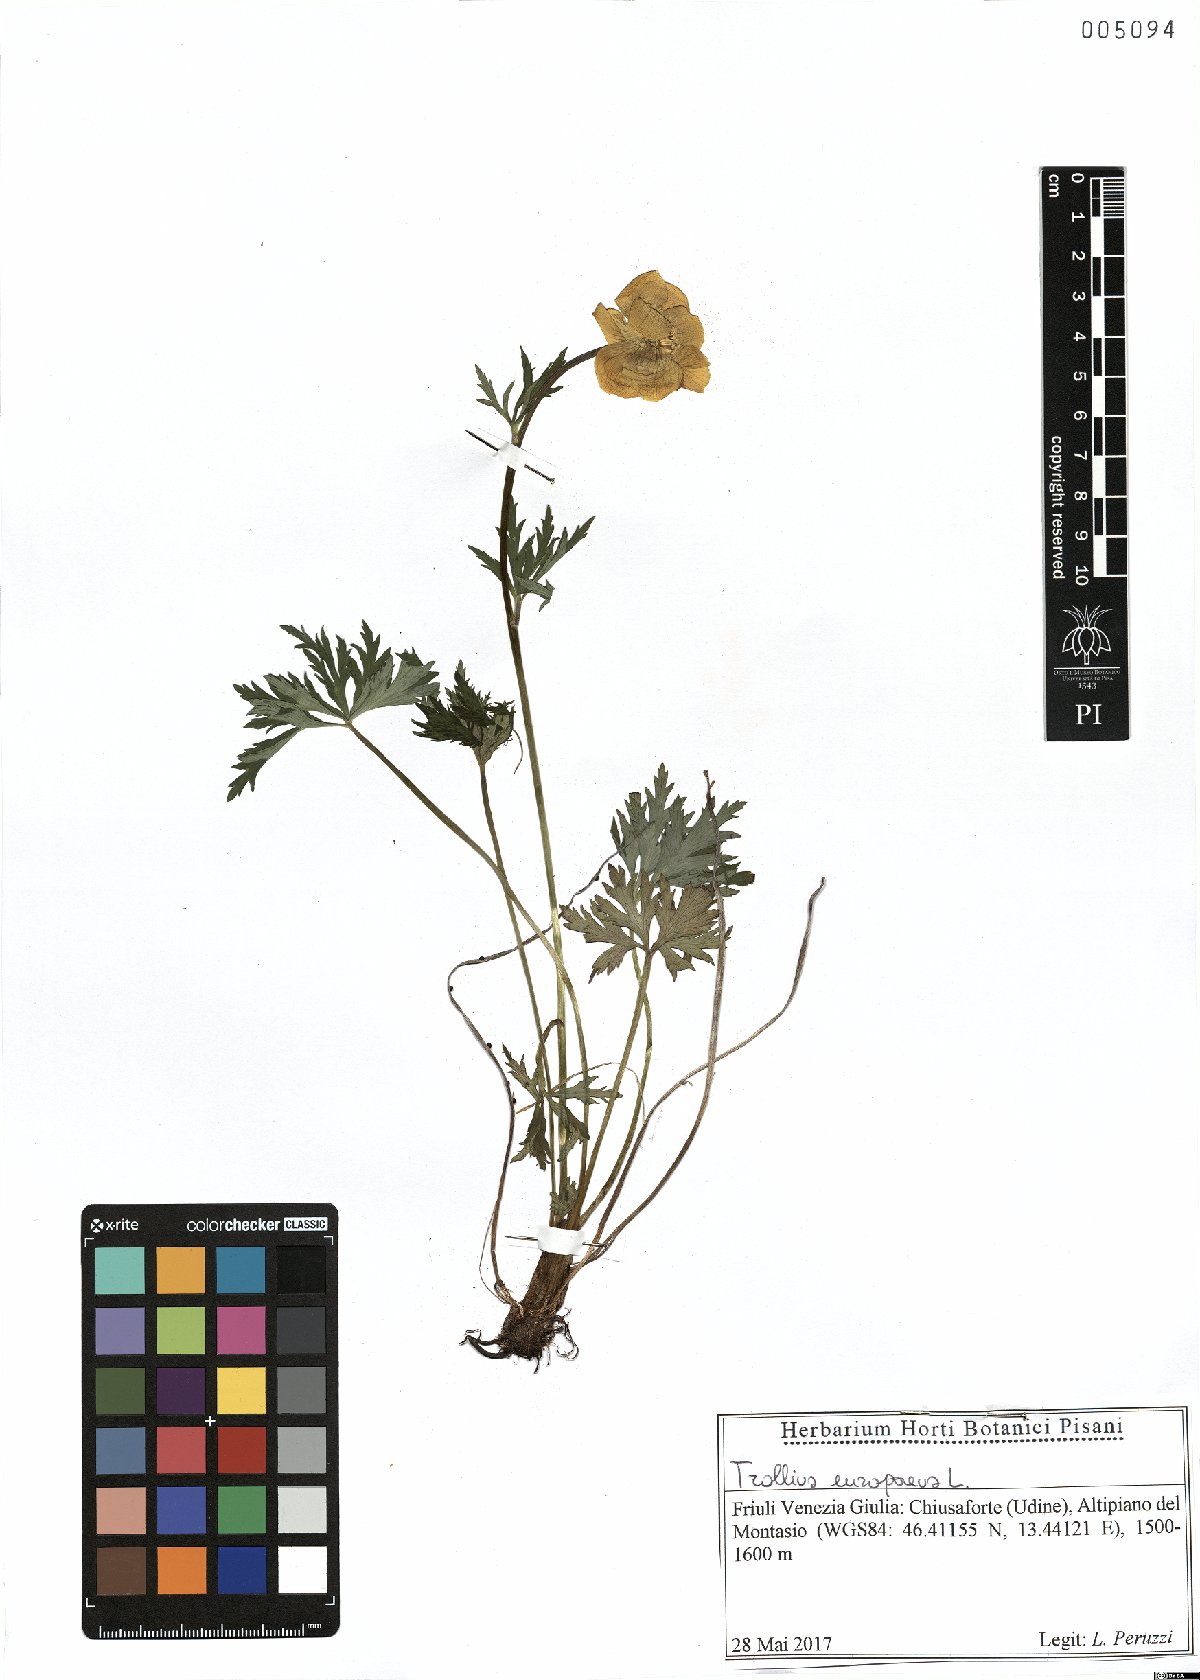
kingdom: Plantae
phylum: Tracheophyta
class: Magnoliopsida
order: Ranunculales
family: Ranunculaceae
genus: Trollius
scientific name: Trollius europaeus
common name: European globeflower
